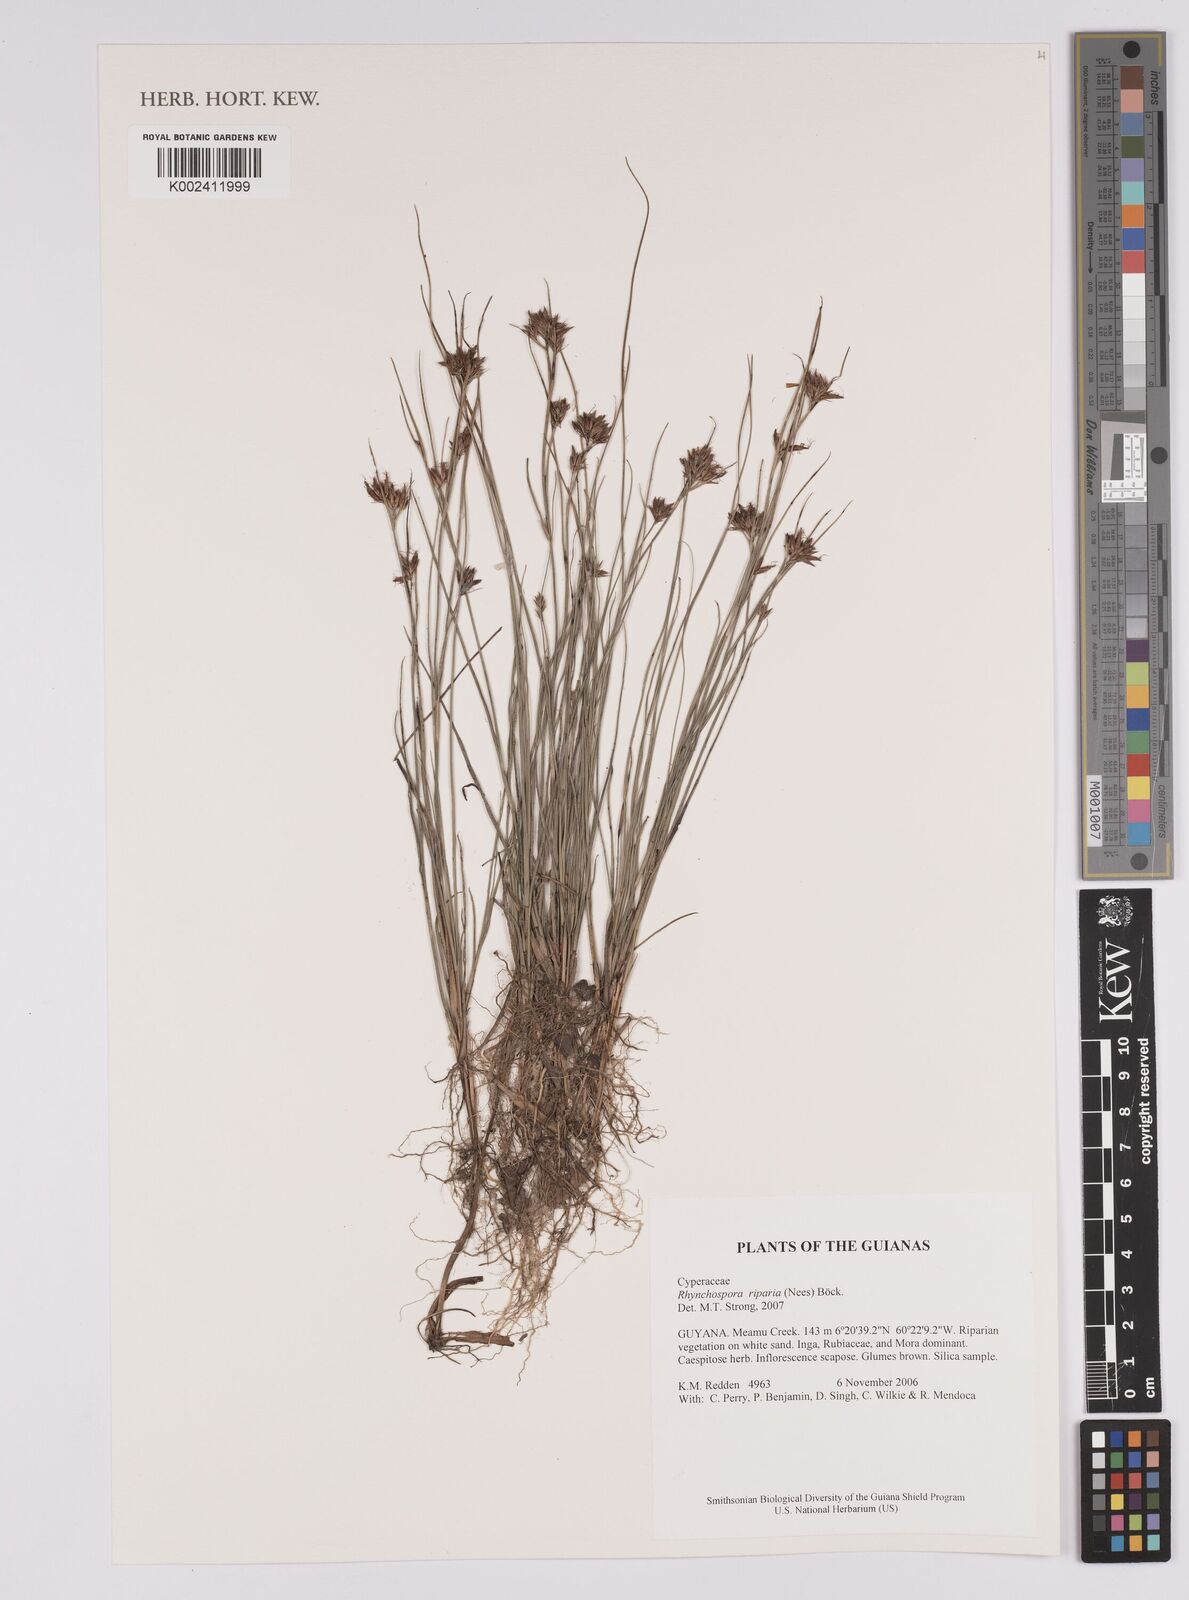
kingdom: Plantae
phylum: Tracheophyta
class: Liliopsida
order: Poales
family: Cyperaceae
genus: Rhynchospora
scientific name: Rhynchospora riparia
